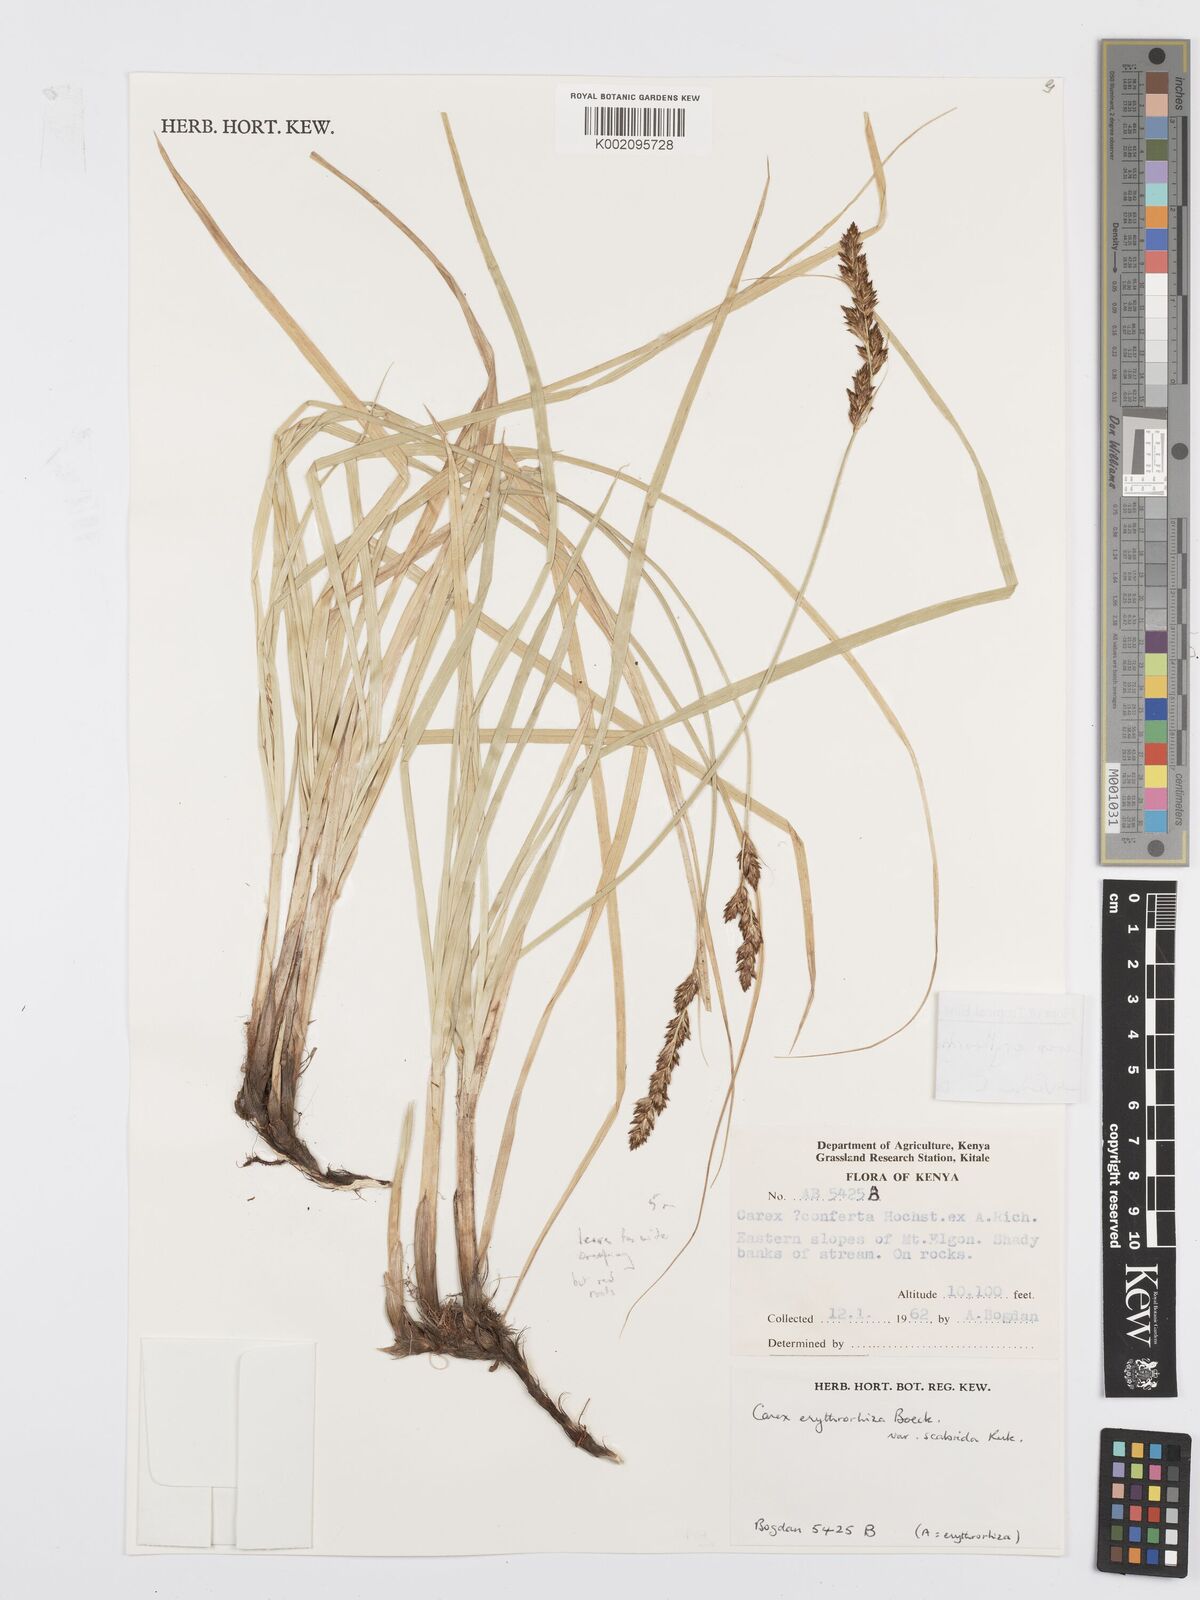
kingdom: Plantae
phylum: Tracheophyta
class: Liliopsida
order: Poales
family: Cyperaceae
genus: Carex
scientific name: Carex erythrorrhiza
